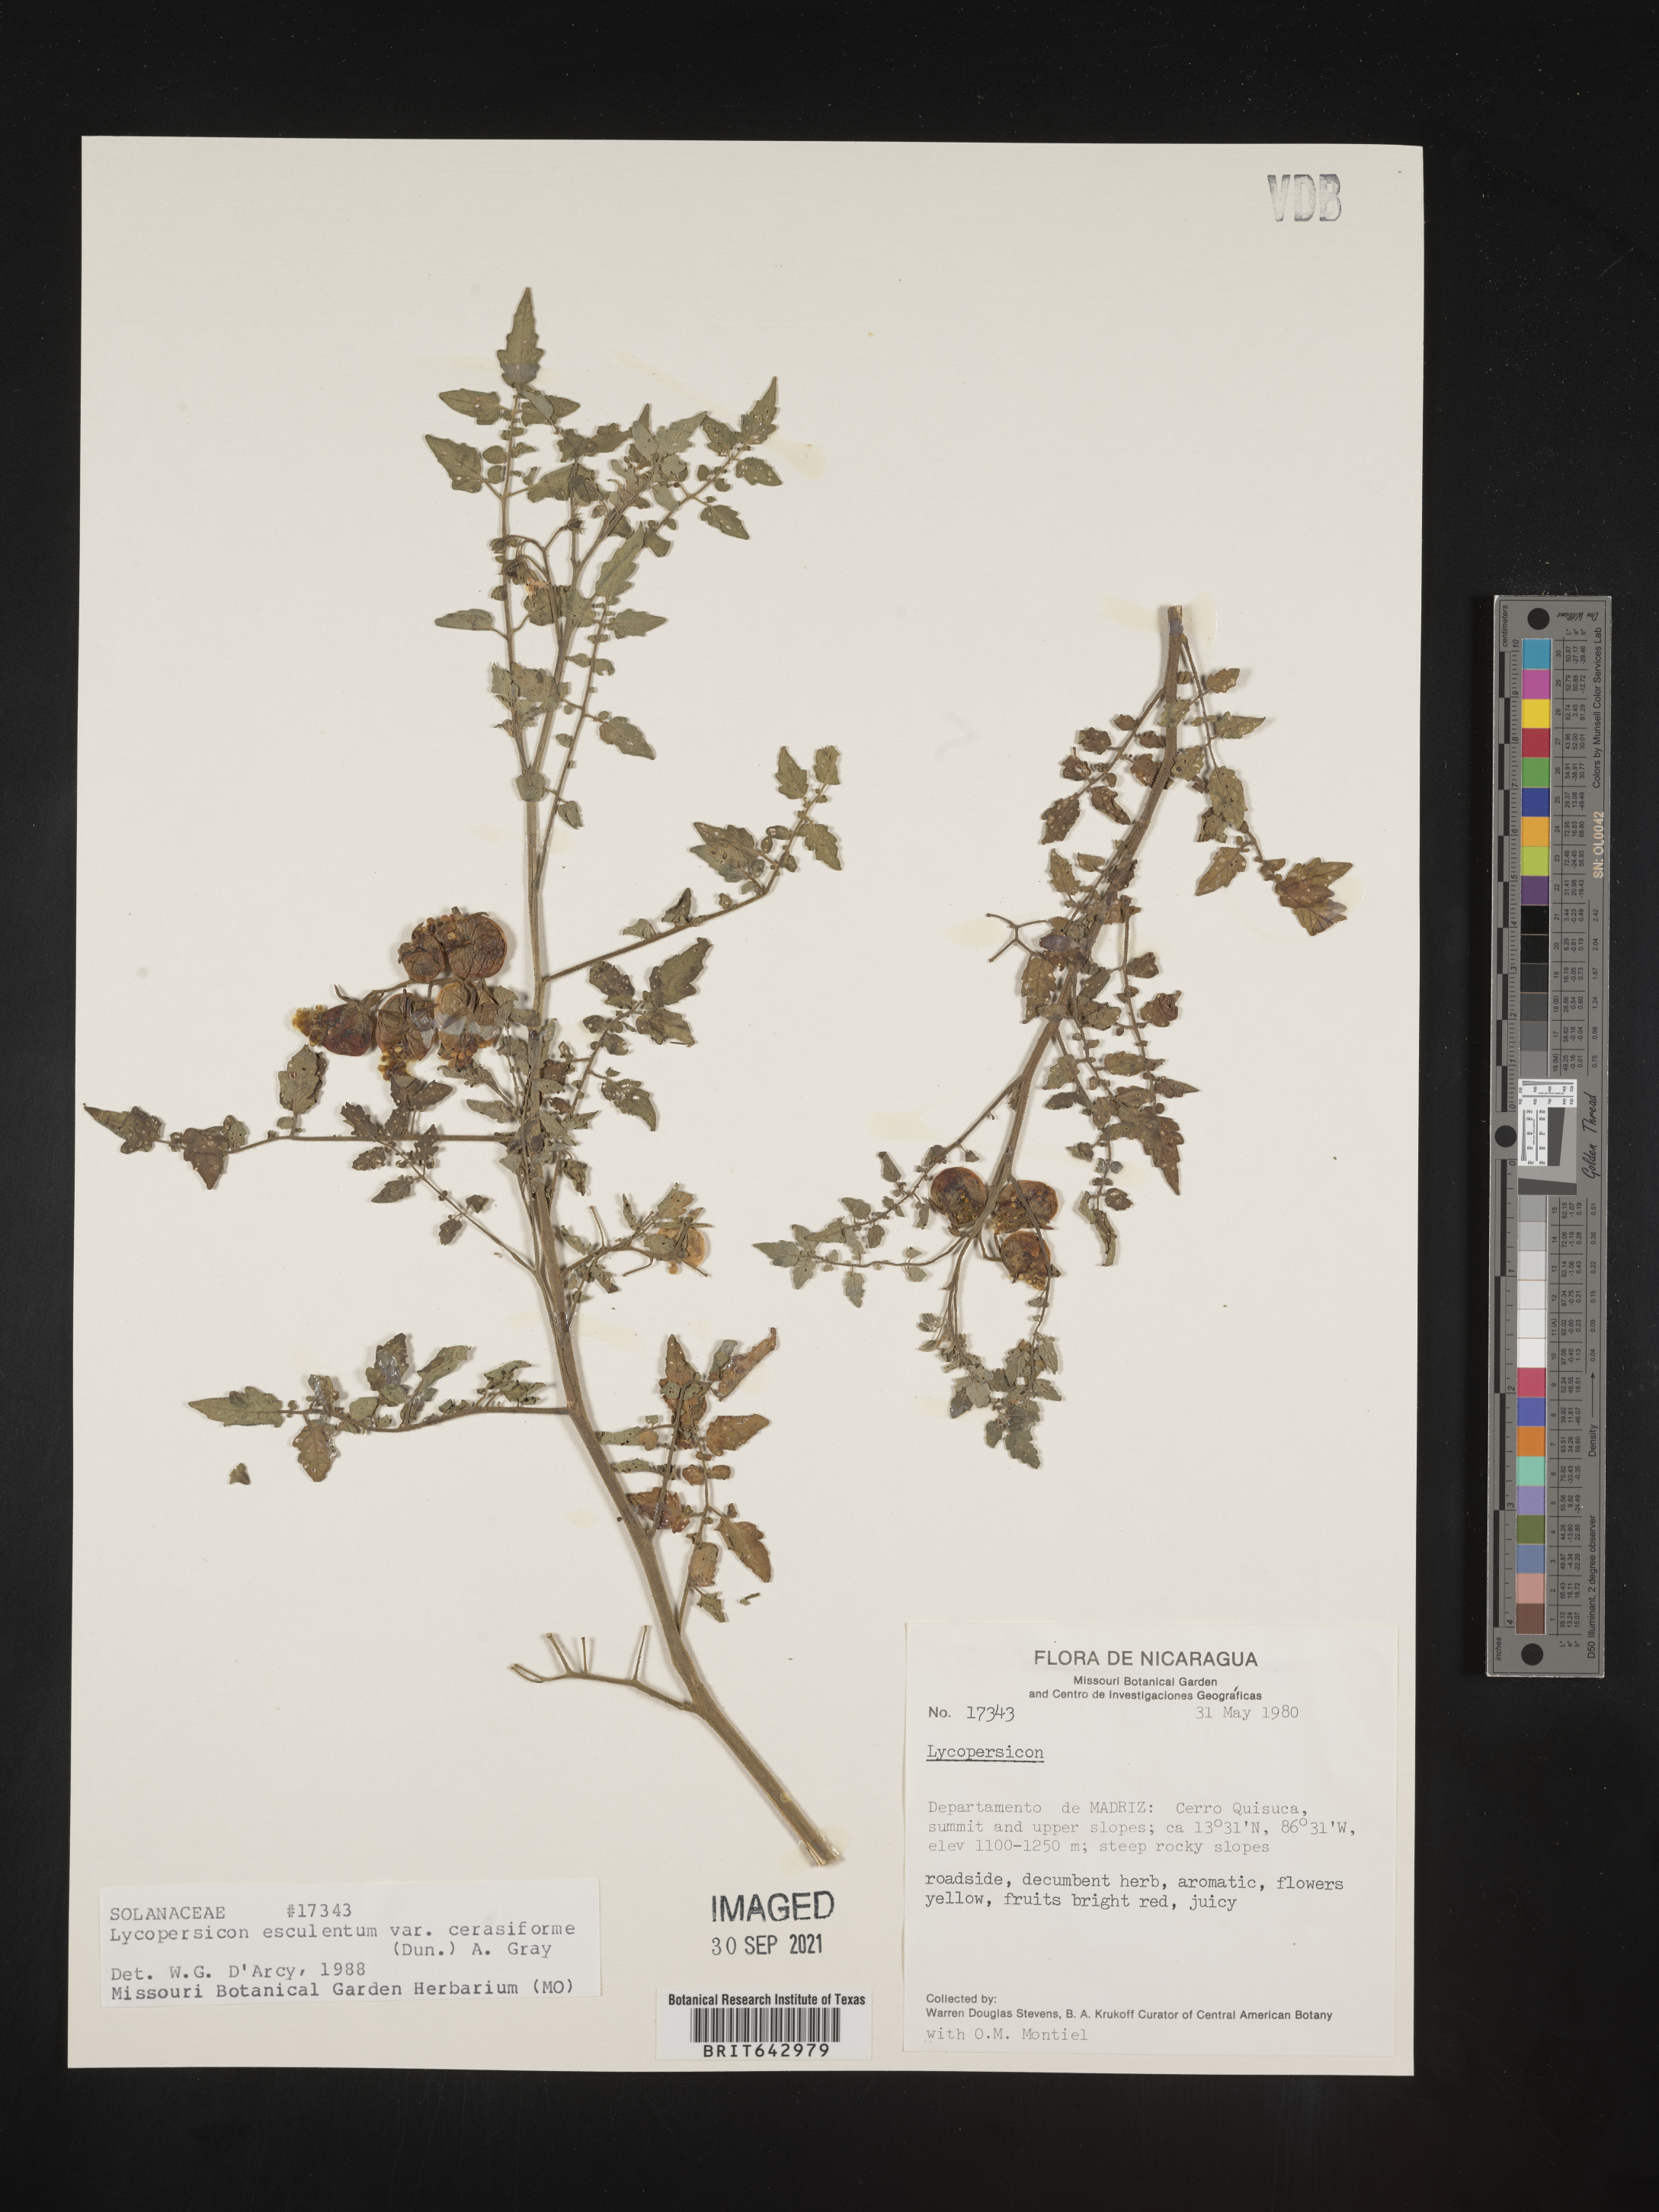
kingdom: Plantae
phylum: Tracheophyta
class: Magnoliopsida
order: Solanales
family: Solanaceae
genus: Lycopersicon
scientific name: Lycopersicon
